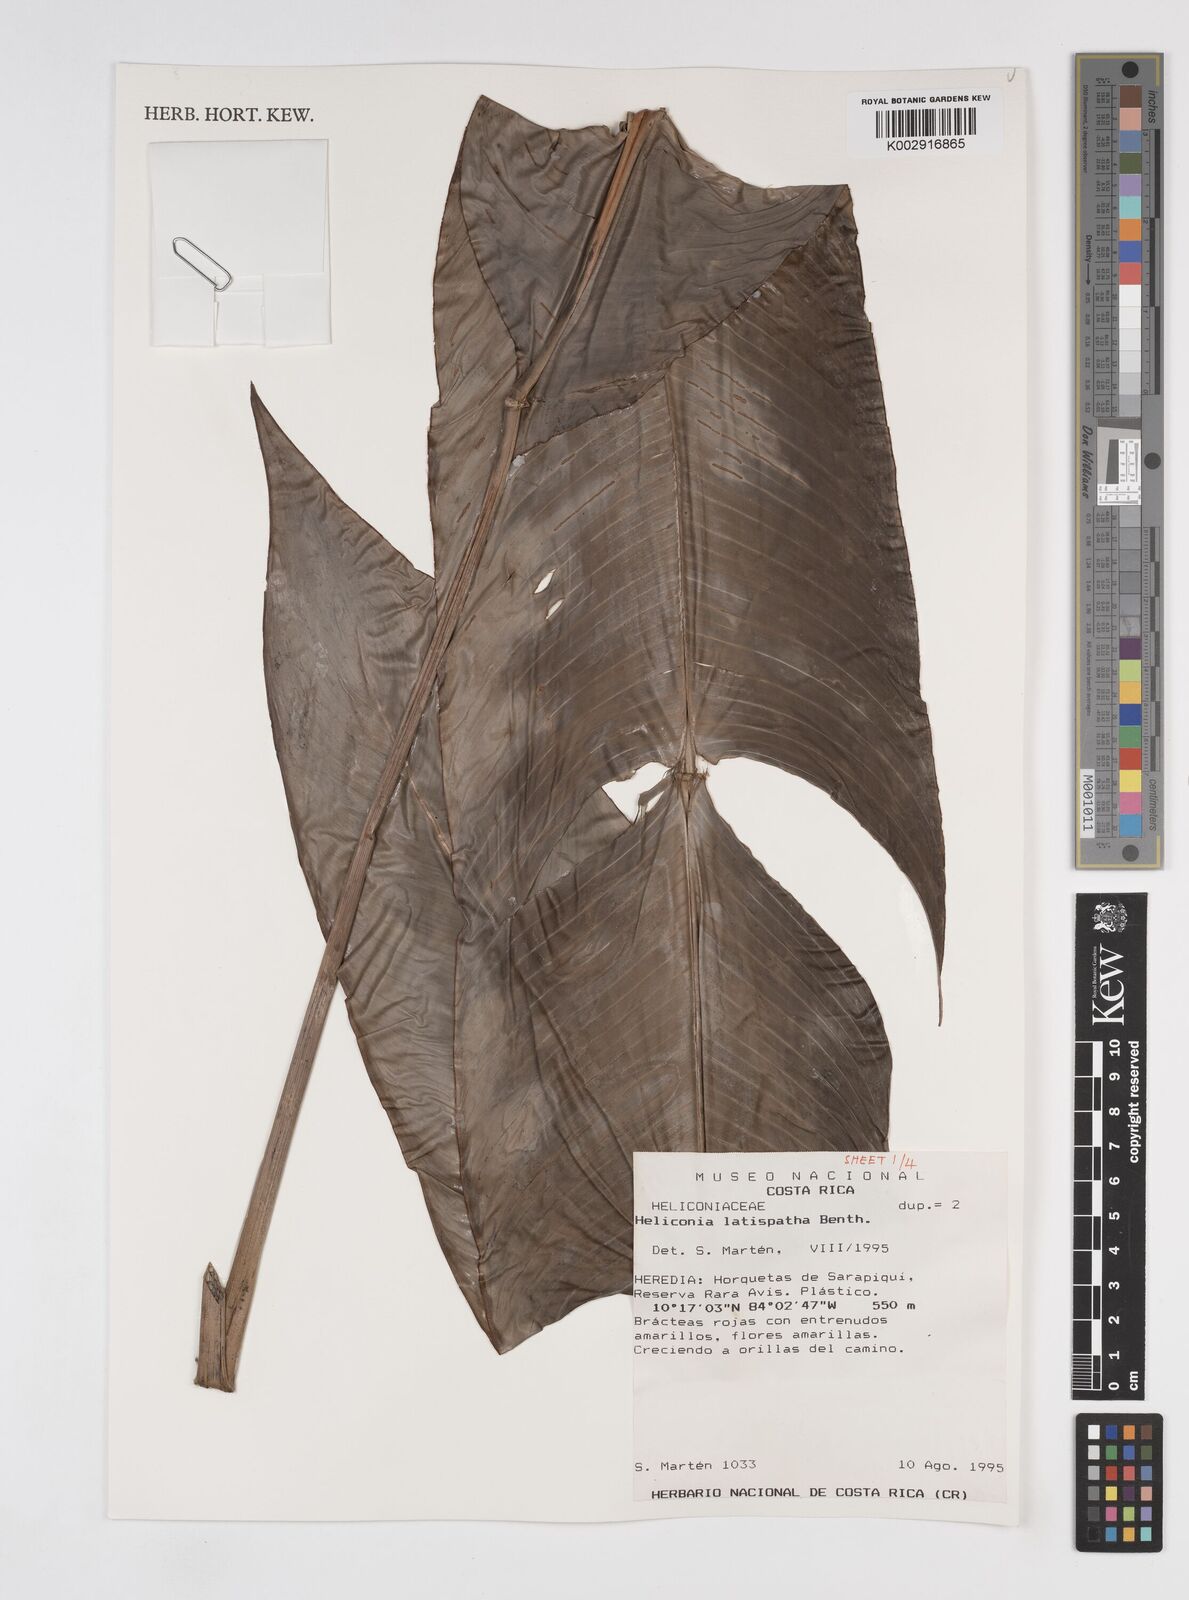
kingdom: Plantae
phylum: Tracheophyta
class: Liliopsida
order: Zingiberales
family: Heliconiaceae
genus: Heliconia
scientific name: Heliconia latispatha
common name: Expanded lobsterclaw
